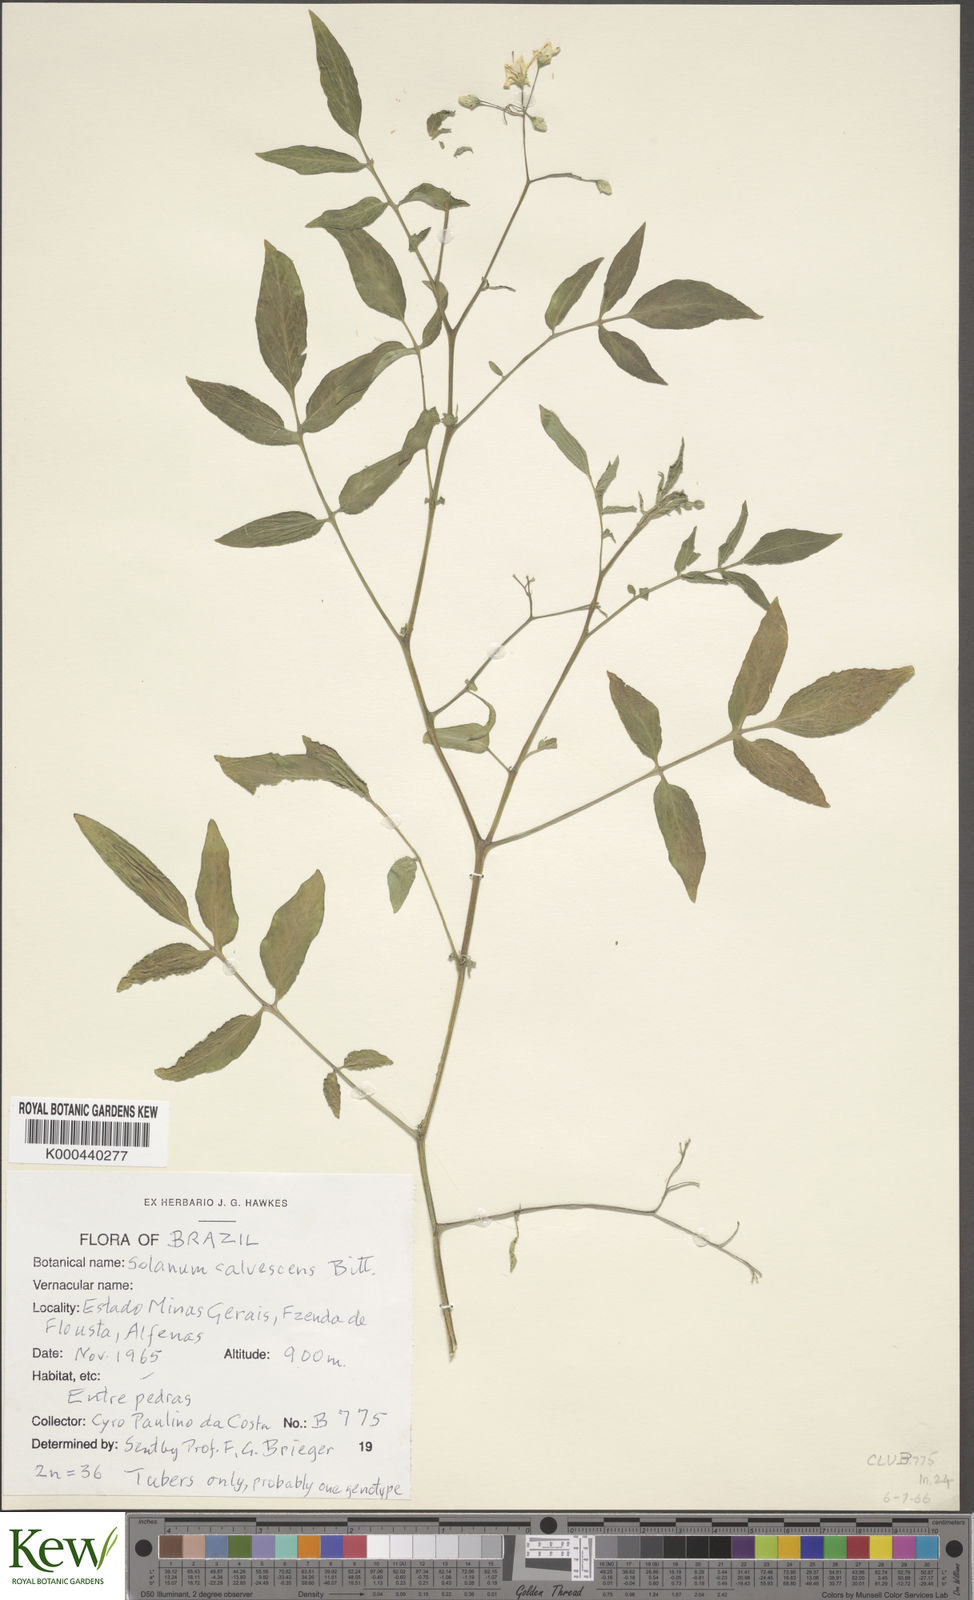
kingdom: Plantae
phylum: Tracheophyta
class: Magnoliopsida
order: Solanales
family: Solanaceae
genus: Solanum
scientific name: Solanum chacoense
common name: Chaco potato
